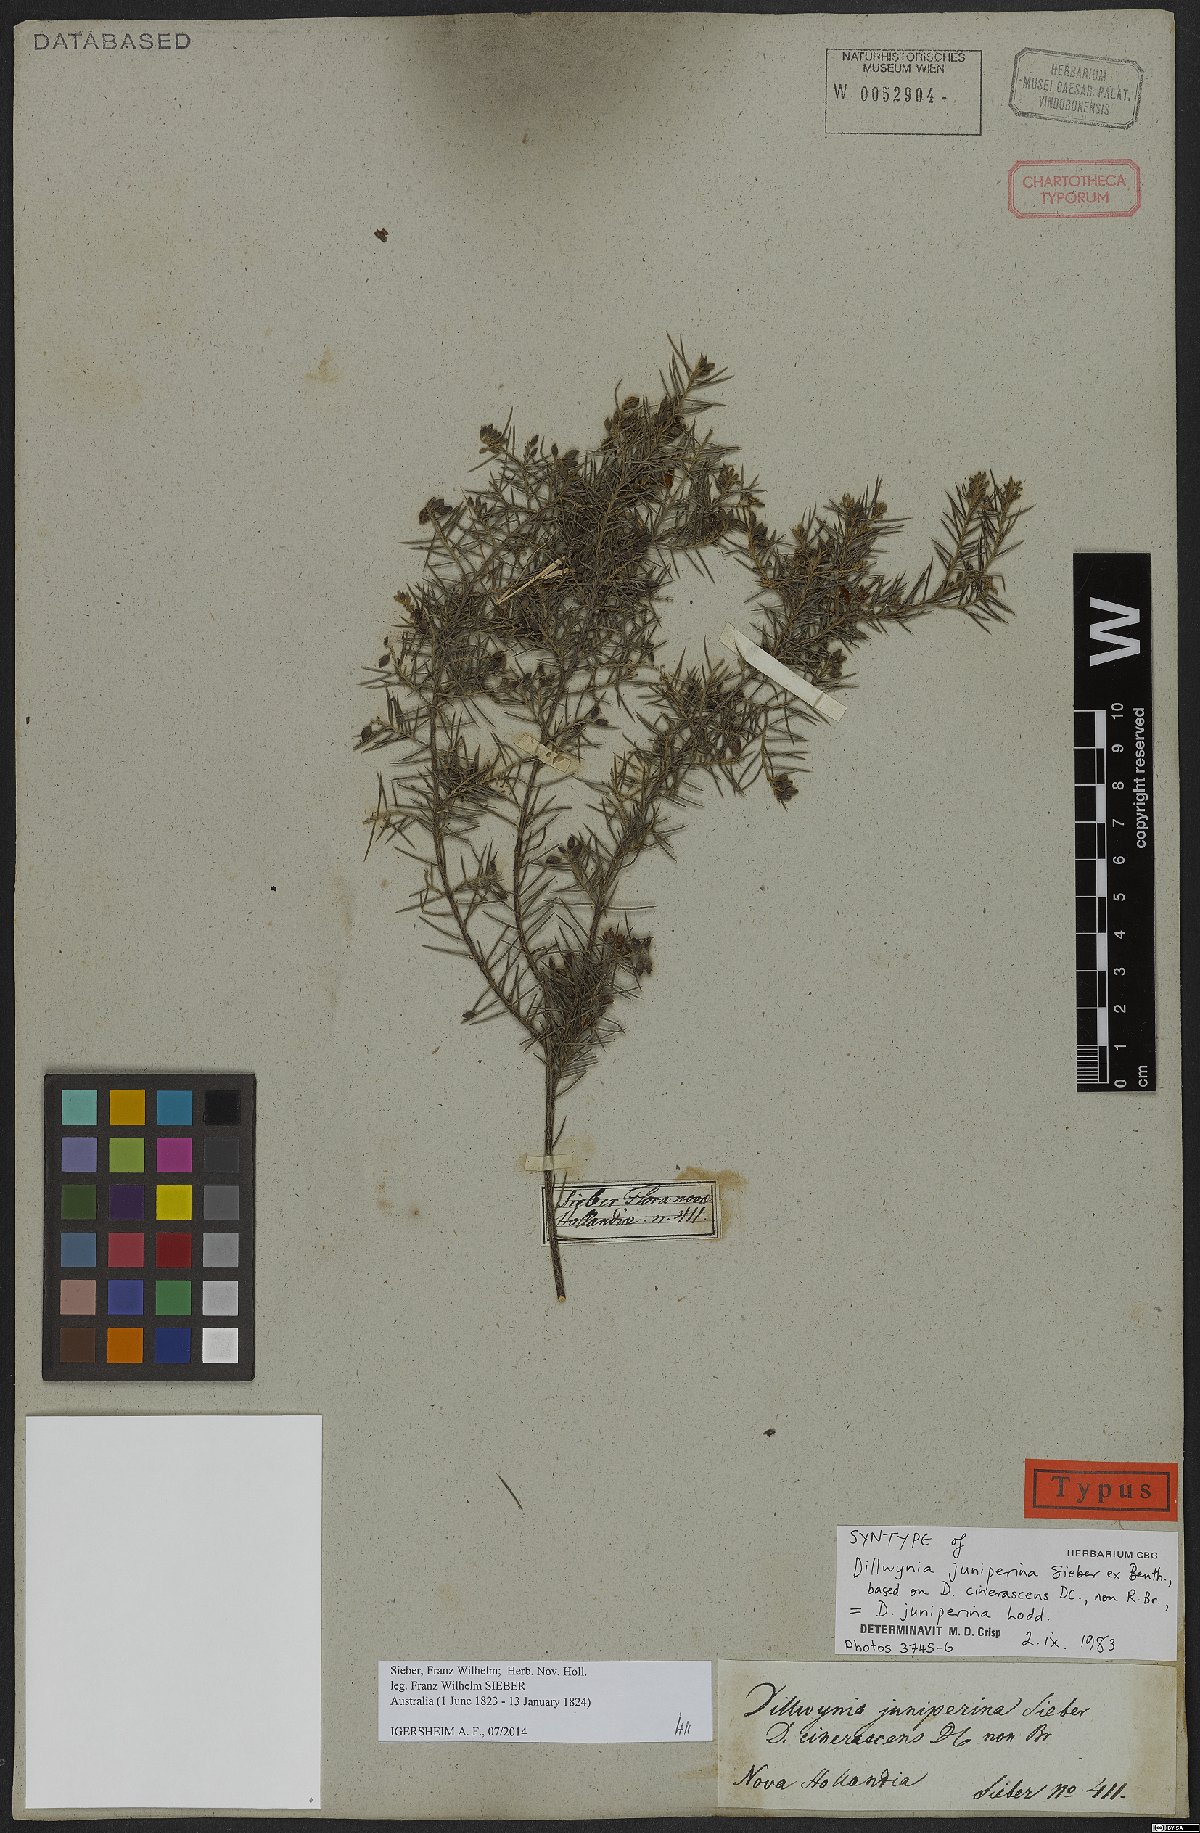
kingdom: Plantae
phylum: Tracheophyta
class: Magnoliopsida
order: Fabales
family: Fabaceae
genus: Dillwynia
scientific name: Dillwynia juniperina
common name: Prickly parrot pea
